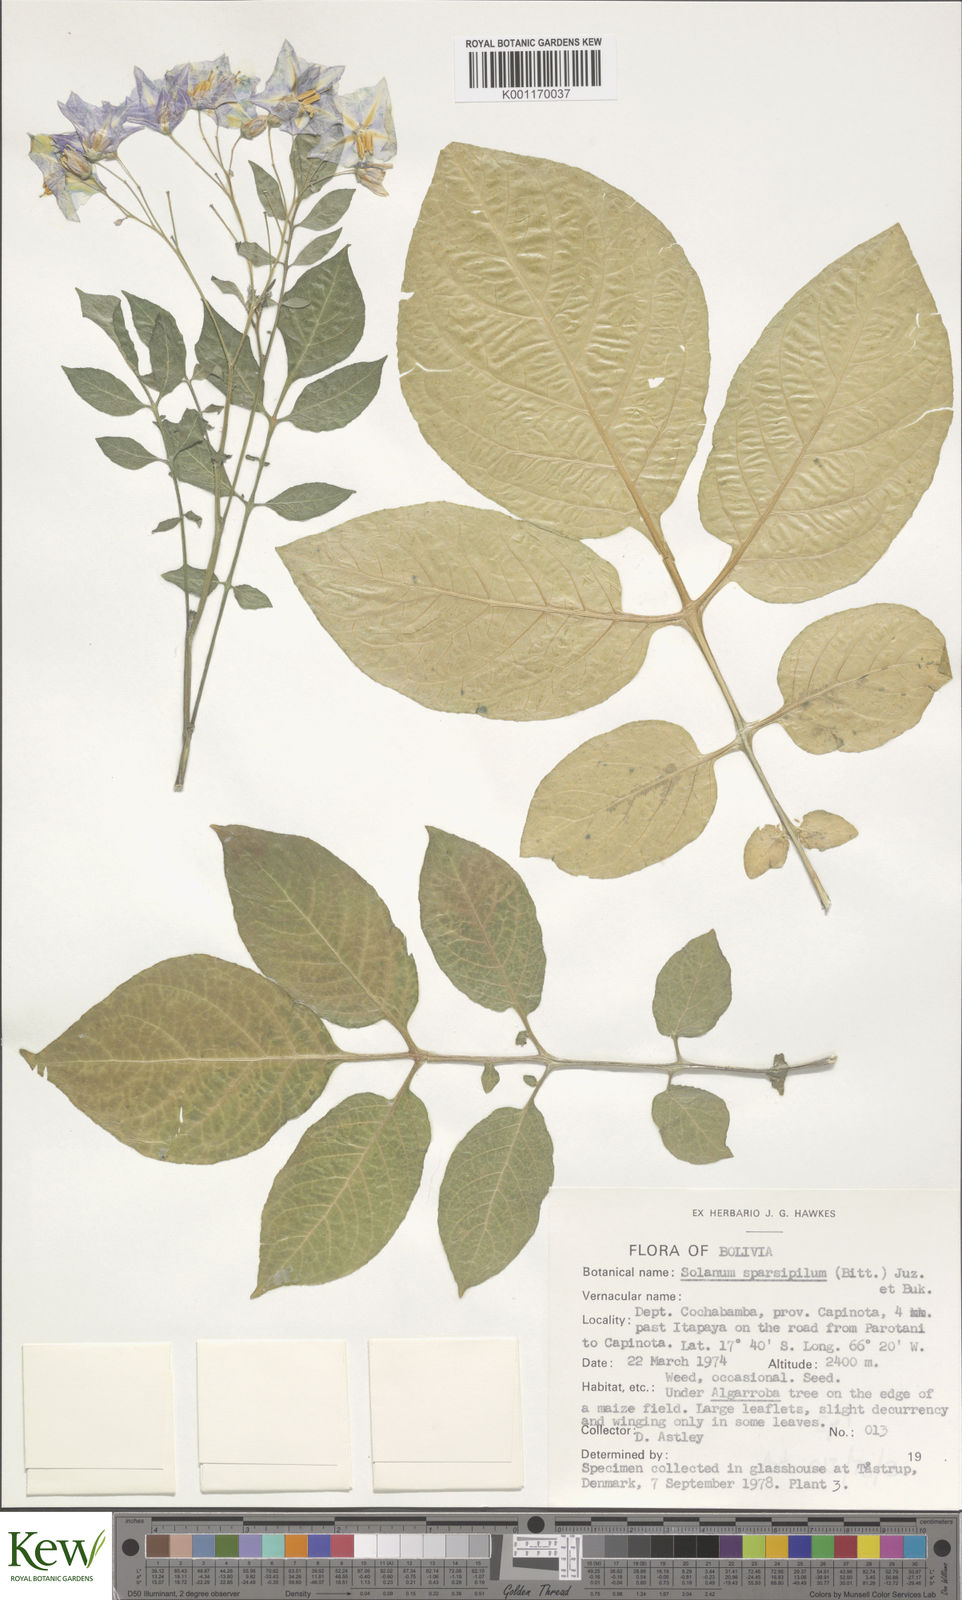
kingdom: Plantae
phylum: Tracheophyta
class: Magnoliopsida
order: Solanales
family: Solanaceae
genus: Solanum
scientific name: Solanum brevicaule
